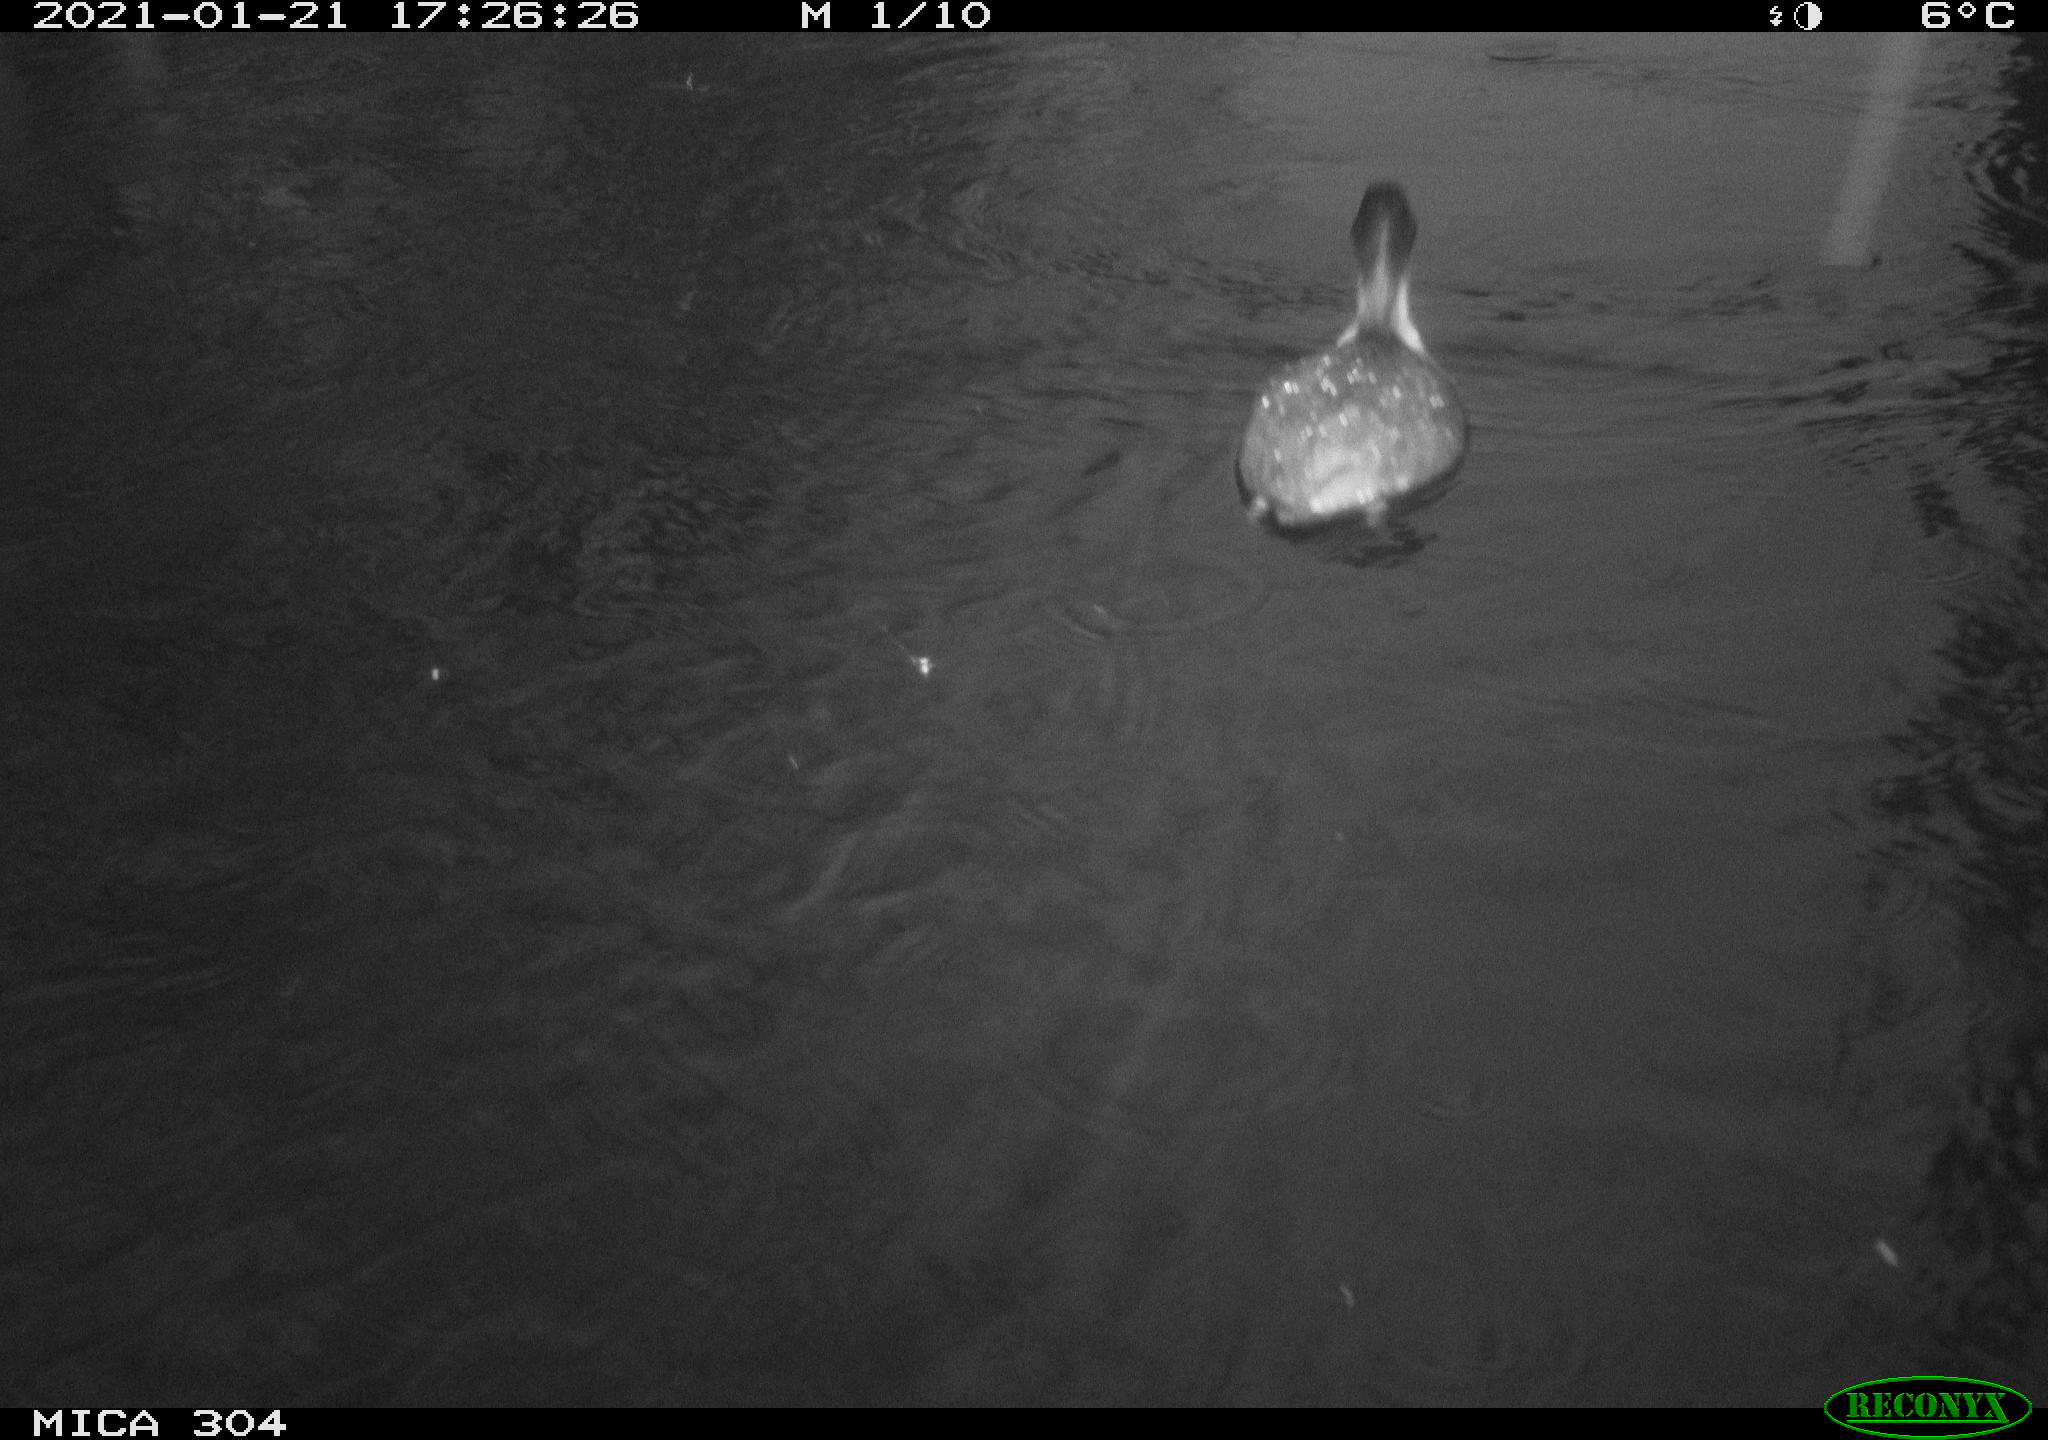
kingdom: Animalia
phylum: Chordata
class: Aves
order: Gruiformes
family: Rallidae
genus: Fulica
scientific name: Fulica atra
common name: Eurasian coot
